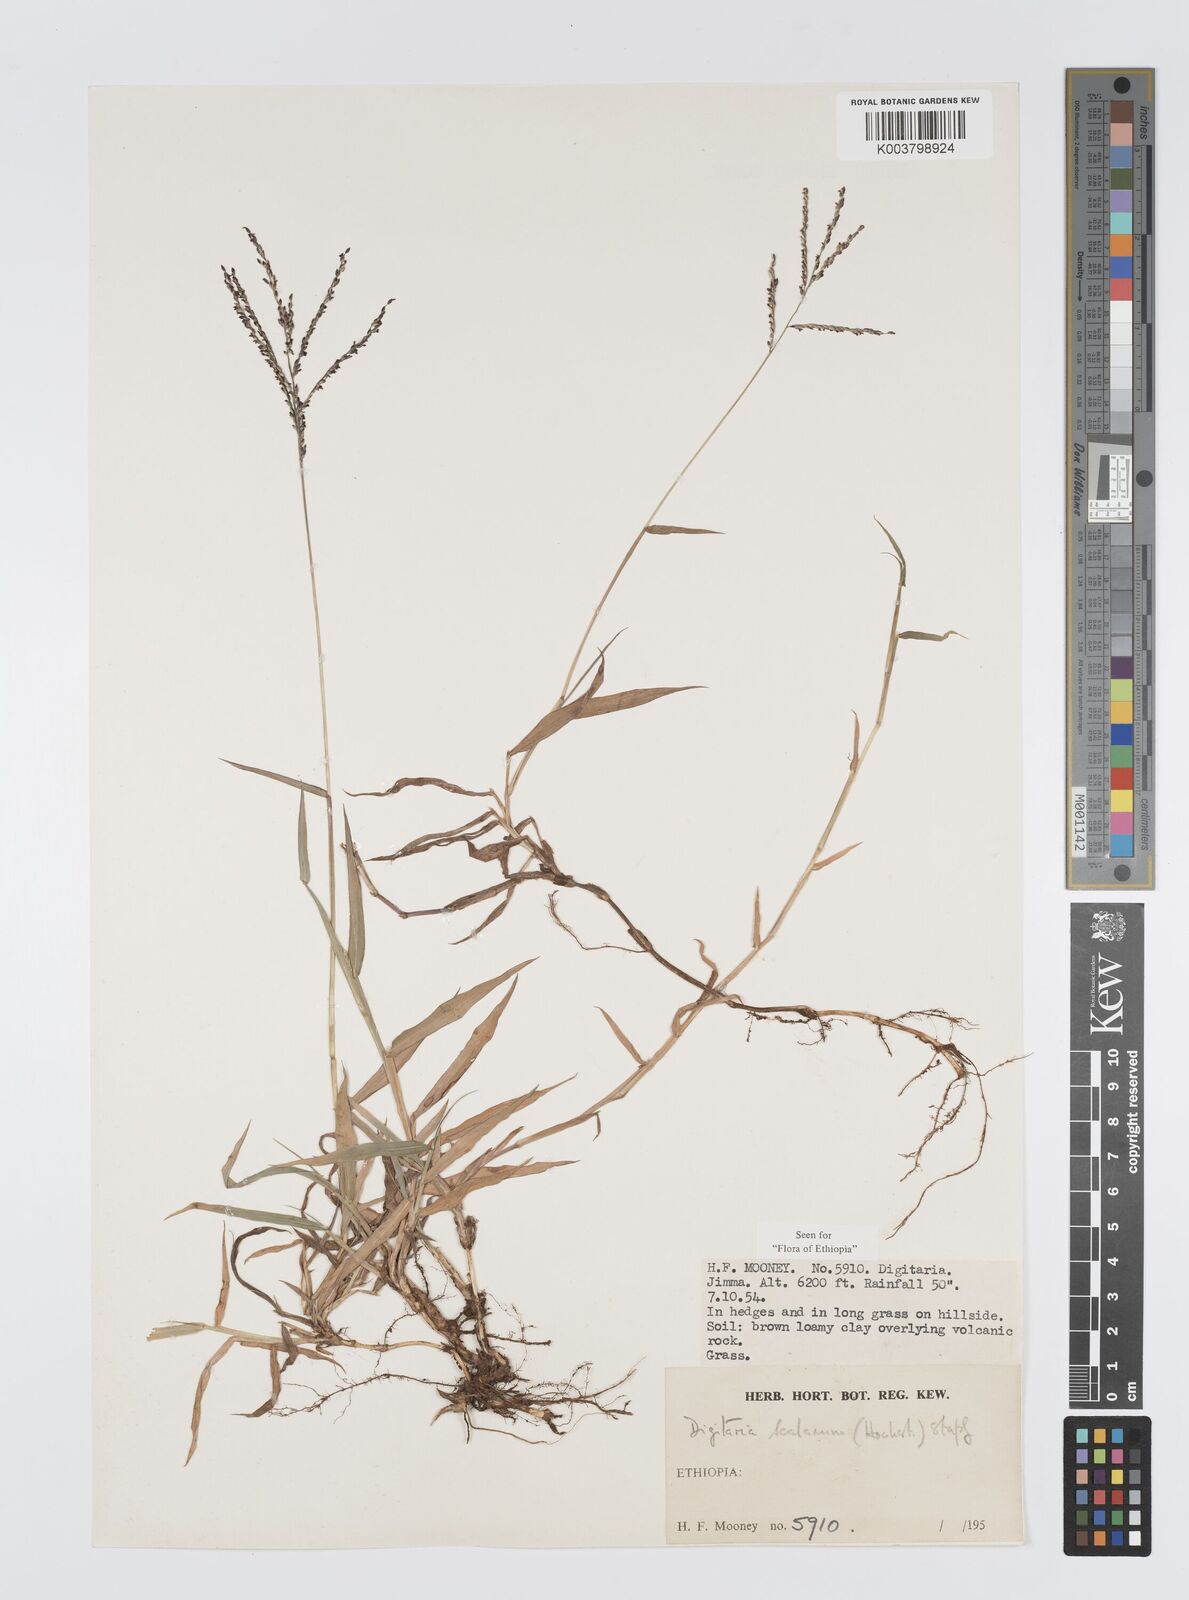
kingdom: Plantae
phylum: Tracheophyta
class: Liliopsida
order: Poales
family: Poaceae
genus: Digitaria
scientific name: Digitaria abyssinica
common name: African couchgrass
